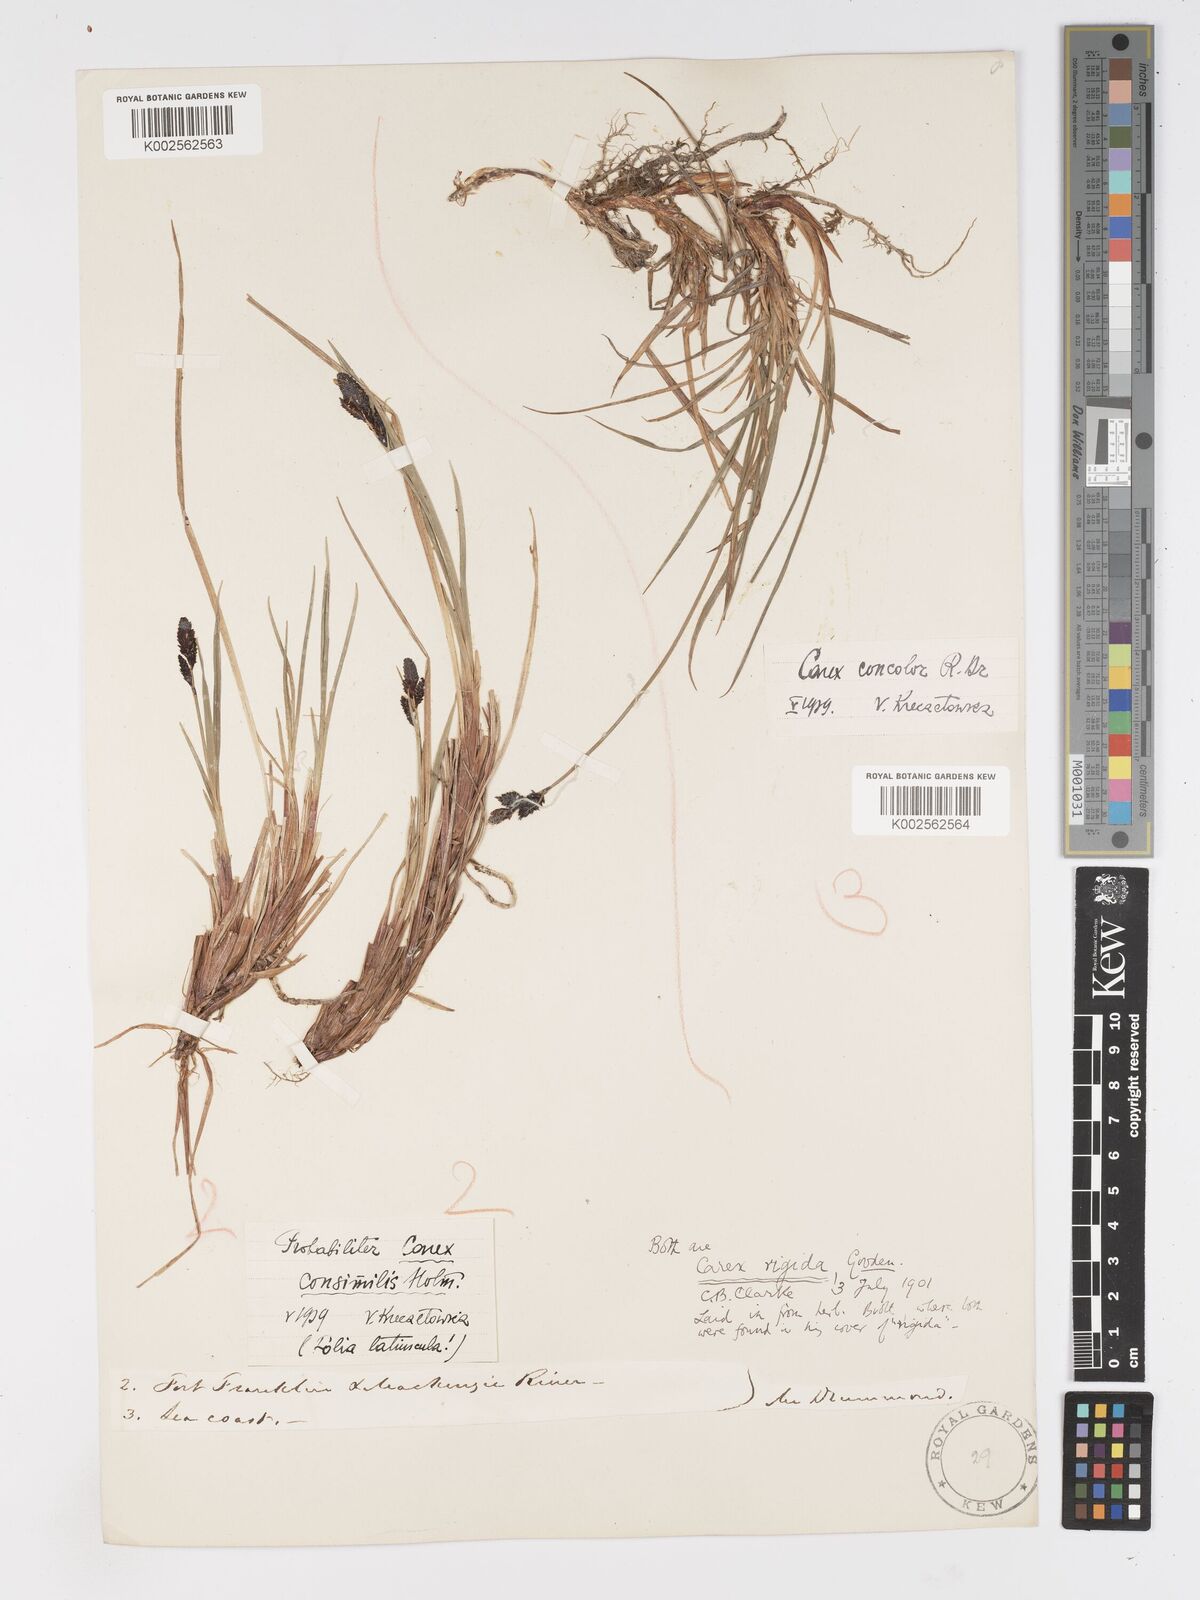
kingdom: Plantae
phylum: Tracheophyta
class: Liliopsida
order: Poales
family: Cyperaceae
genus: Carex
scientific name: Carex bigelowii
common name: Stiff sedge
